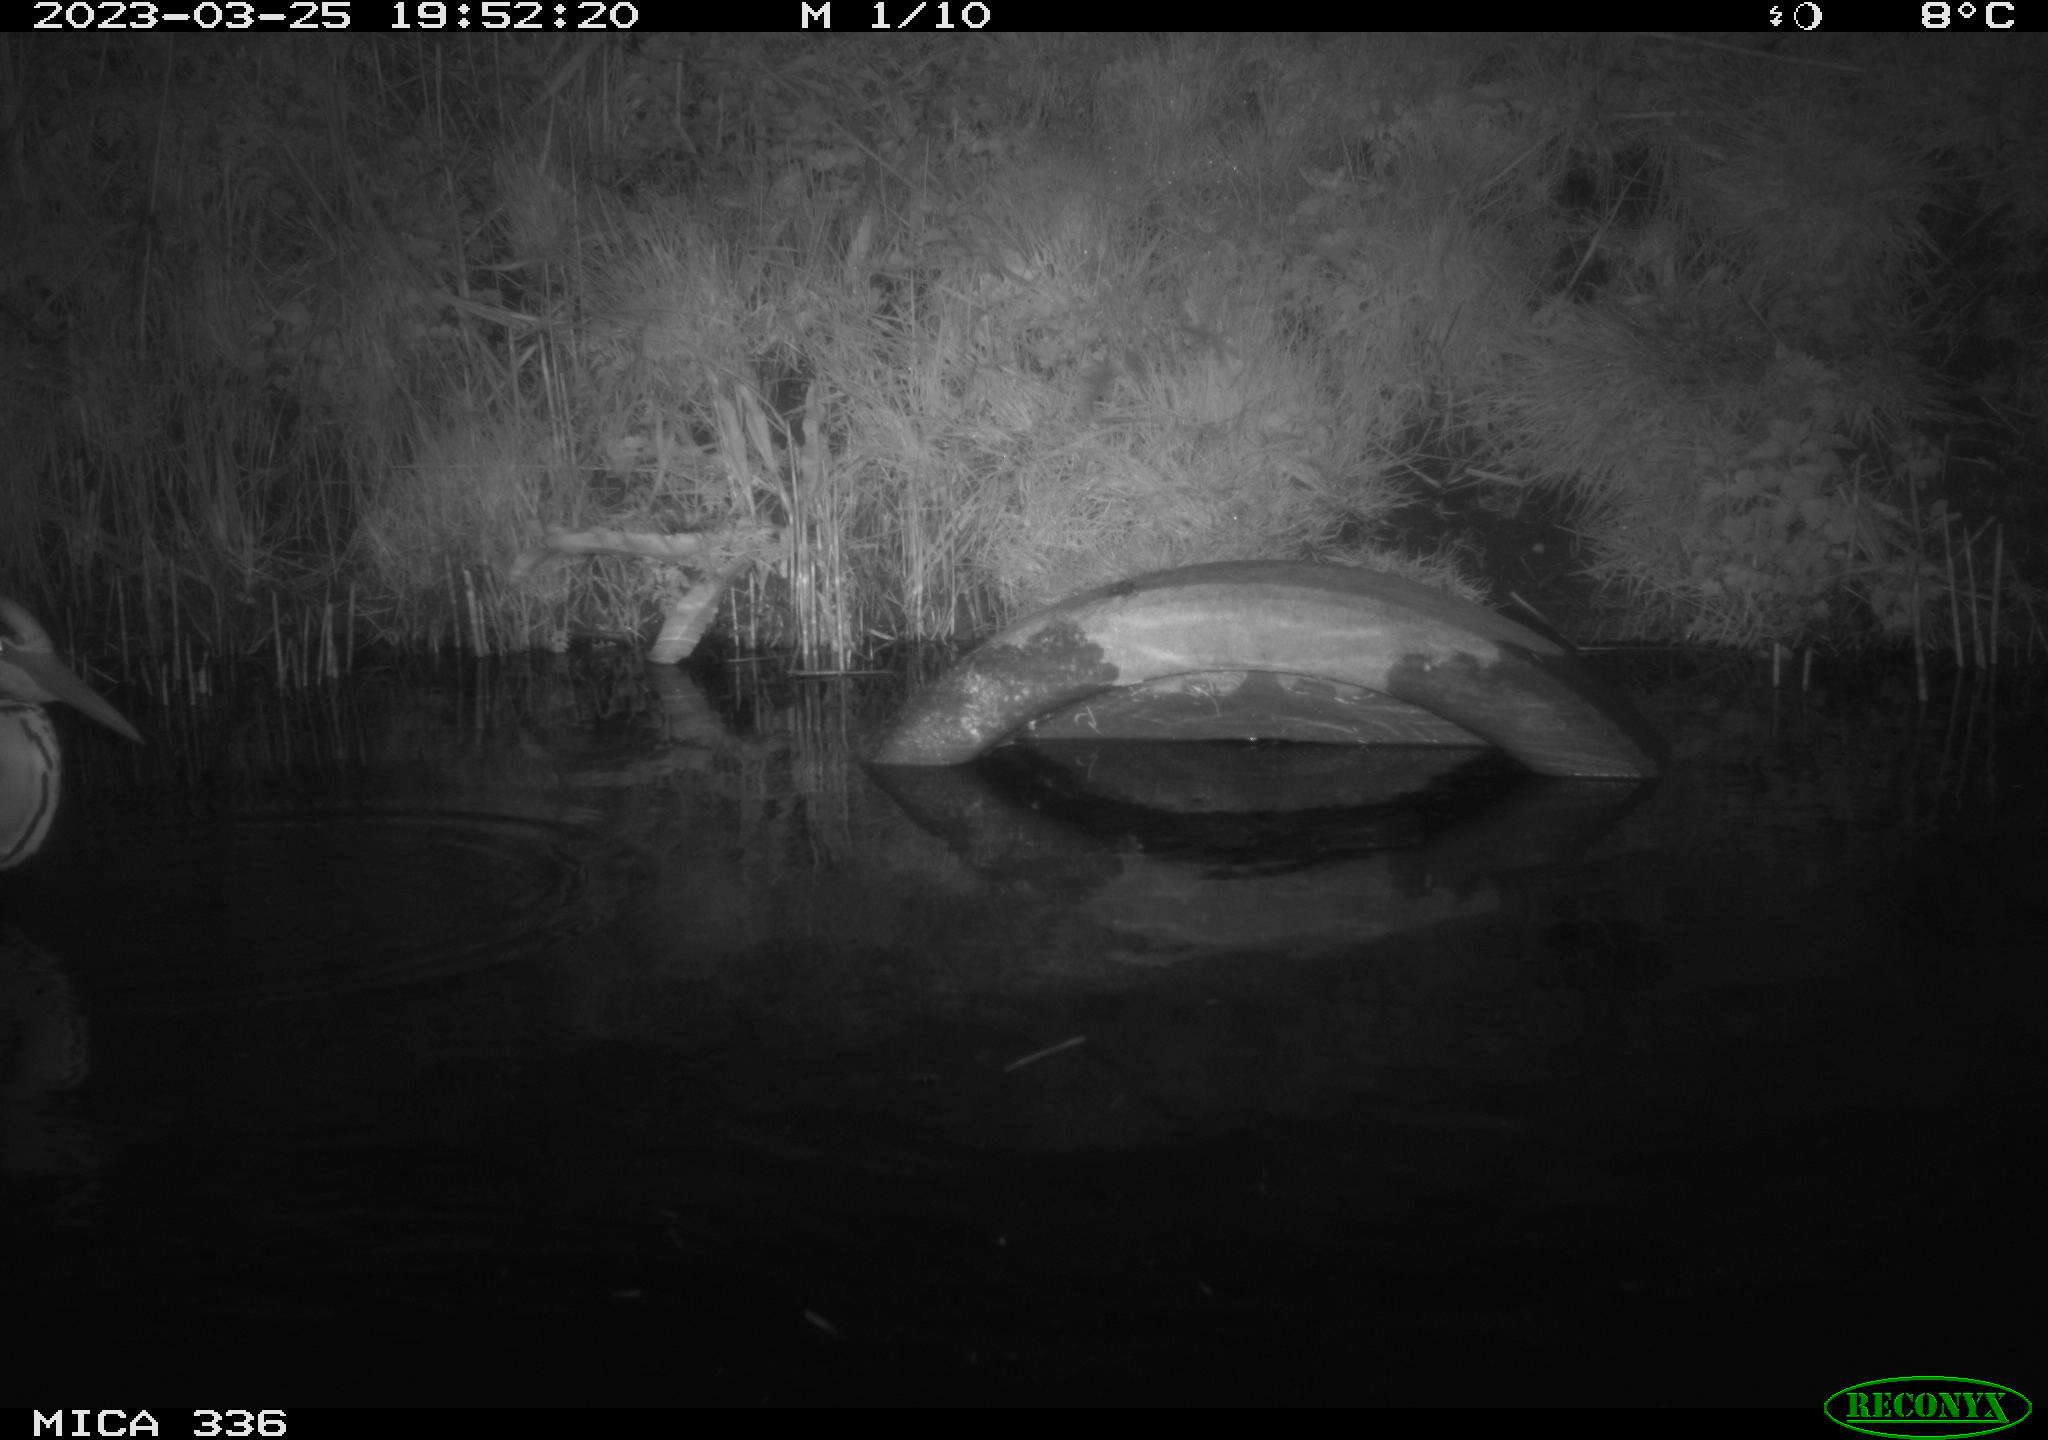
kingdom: Animalia
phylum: Chordata
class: Aves
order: Pelecaniformes
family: Ardeidae
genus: Ardea
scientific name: Ardea cinerea
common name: Grey heron
